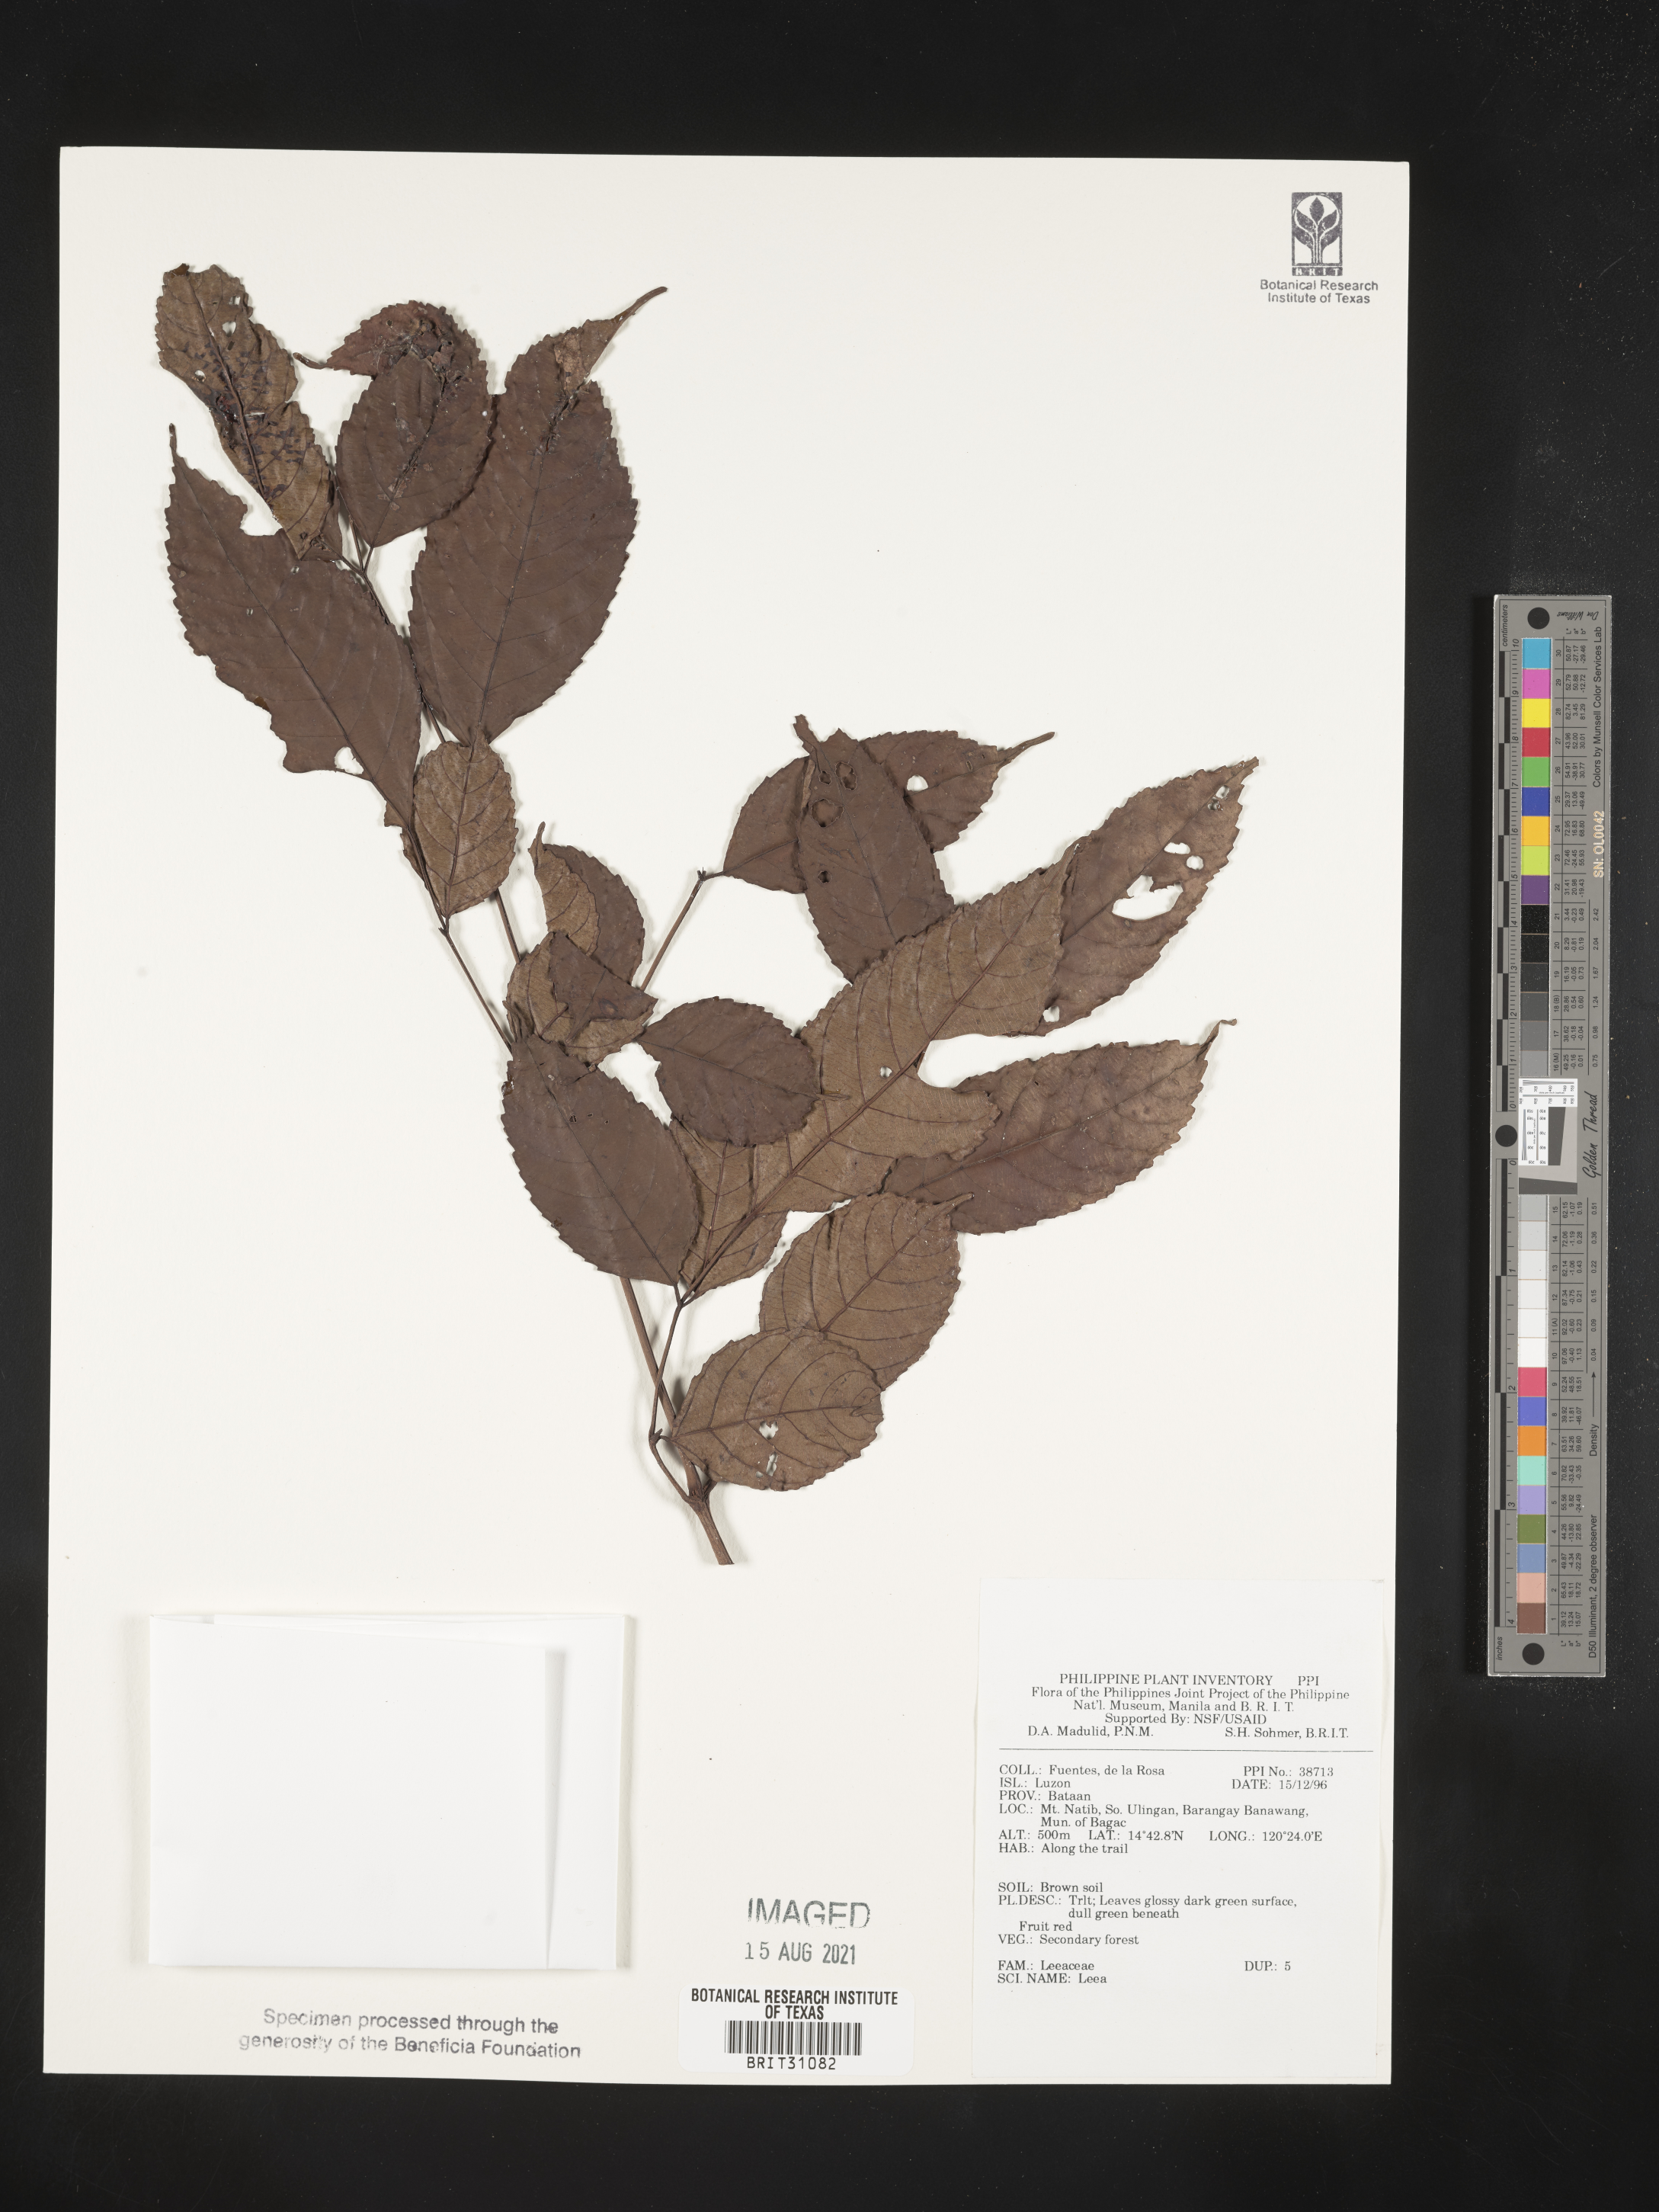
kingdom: Plantae
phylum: Tracheophyta
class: Magnoliopsida
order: Vitales
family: Vitaceae
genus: Leea
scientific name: Leea
